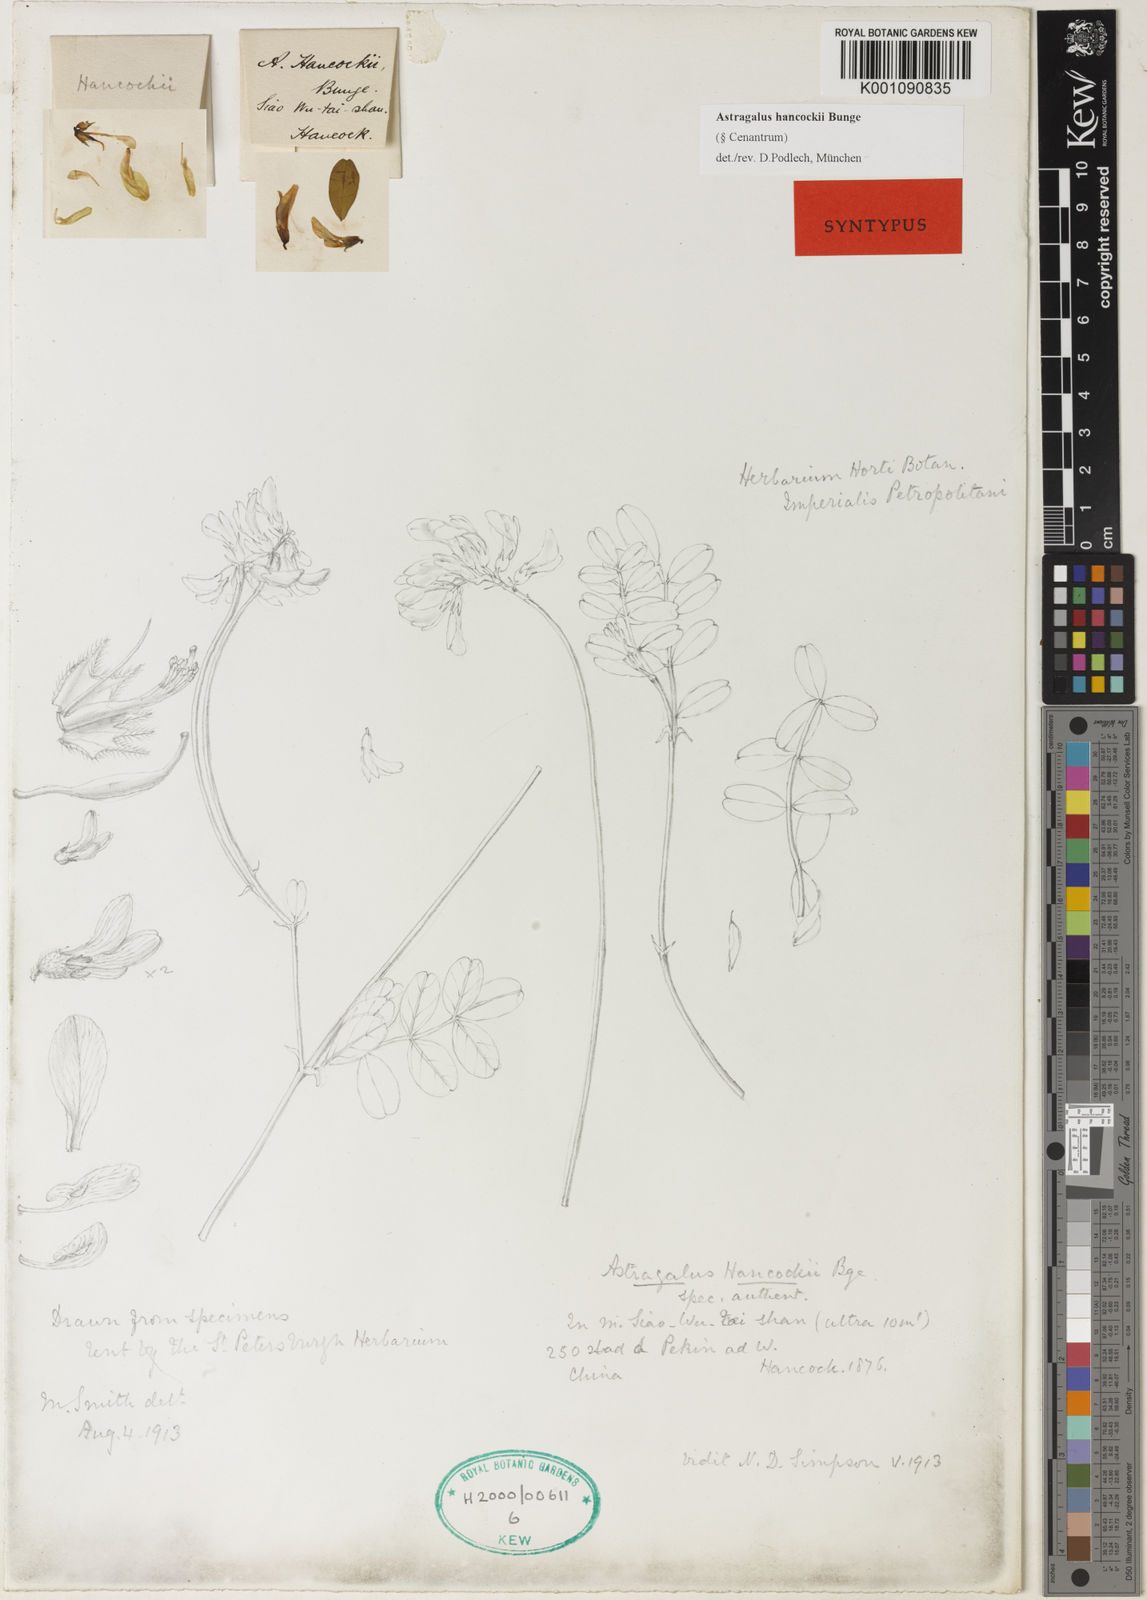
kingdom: Plantae
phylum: Tracheophyta
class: Magnoliopsida
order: Fabales
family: Fabaceae
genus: Astragalus
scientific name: Astragalus
